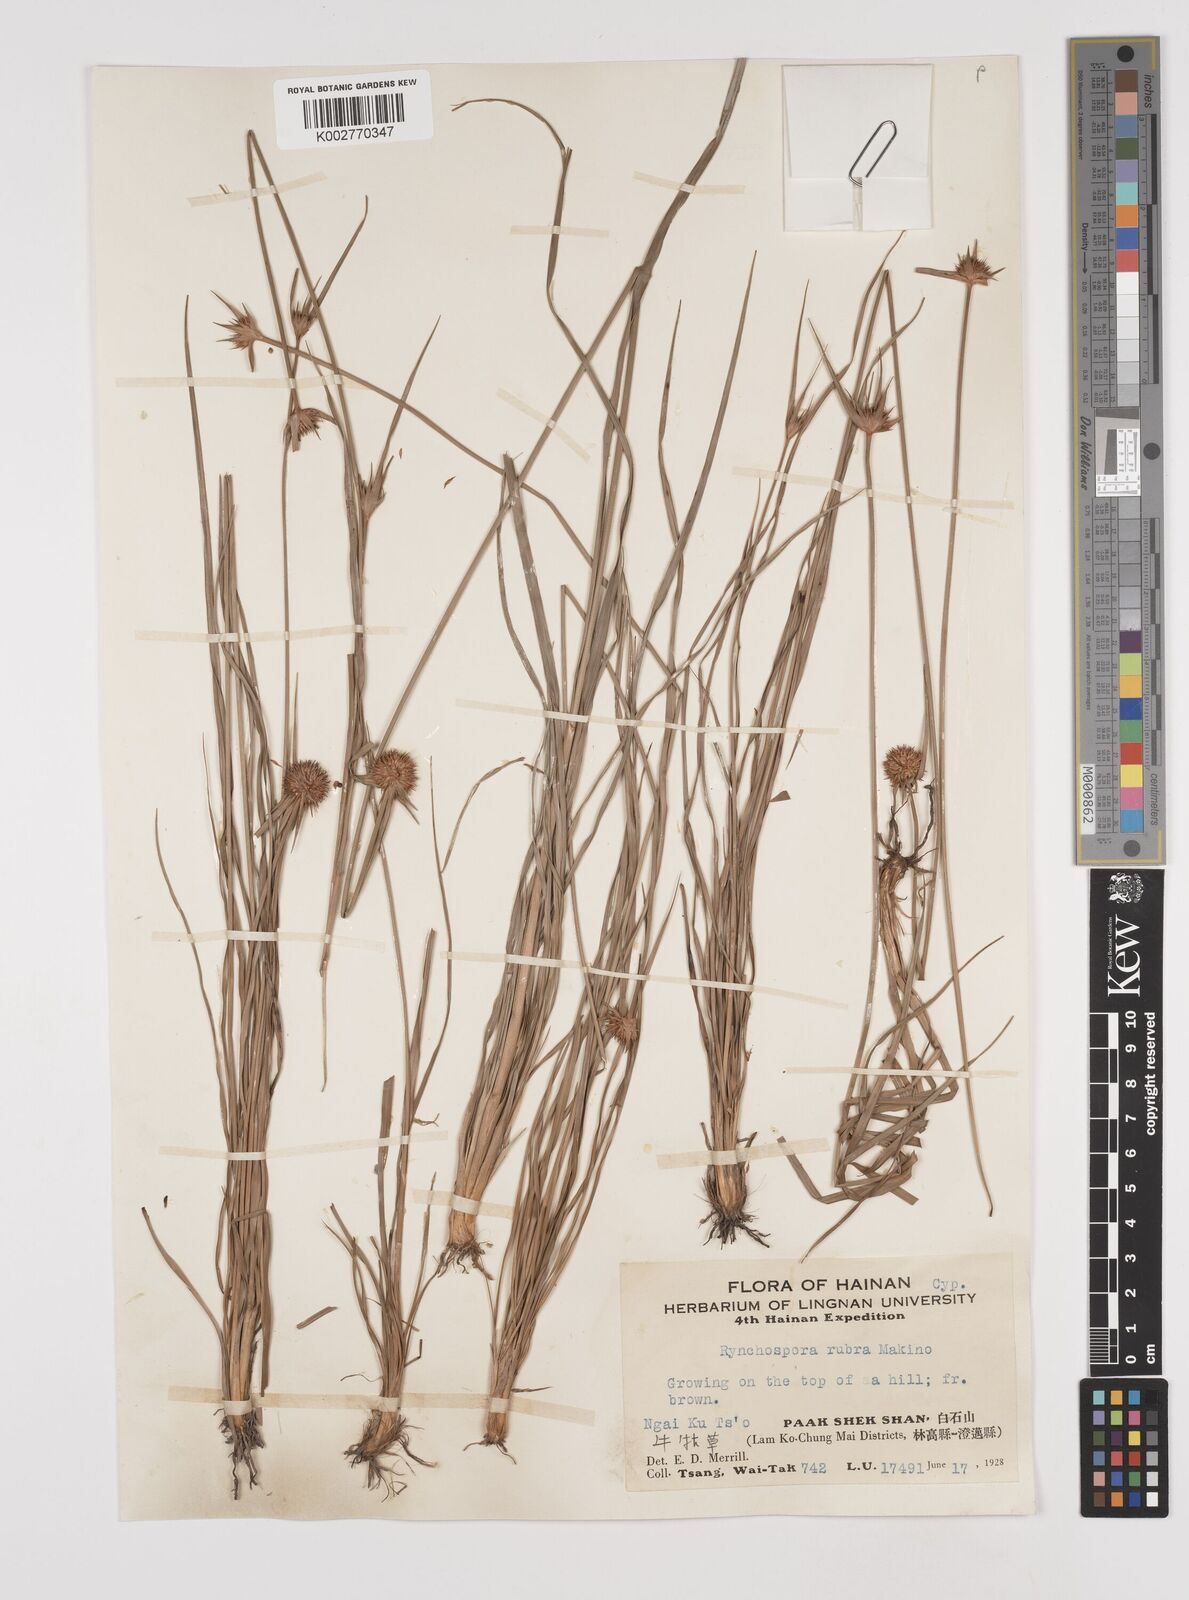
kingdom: Plantae
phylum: Tracheophyta
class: Liliopsida
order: Poales
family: Cyperaceae
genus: Rhynchospora
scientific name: Rhynchospora rubra
